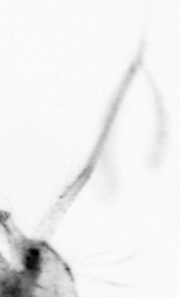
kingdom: Animalia
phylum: Arthropoda
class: Copepoda
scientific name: Copepoda
